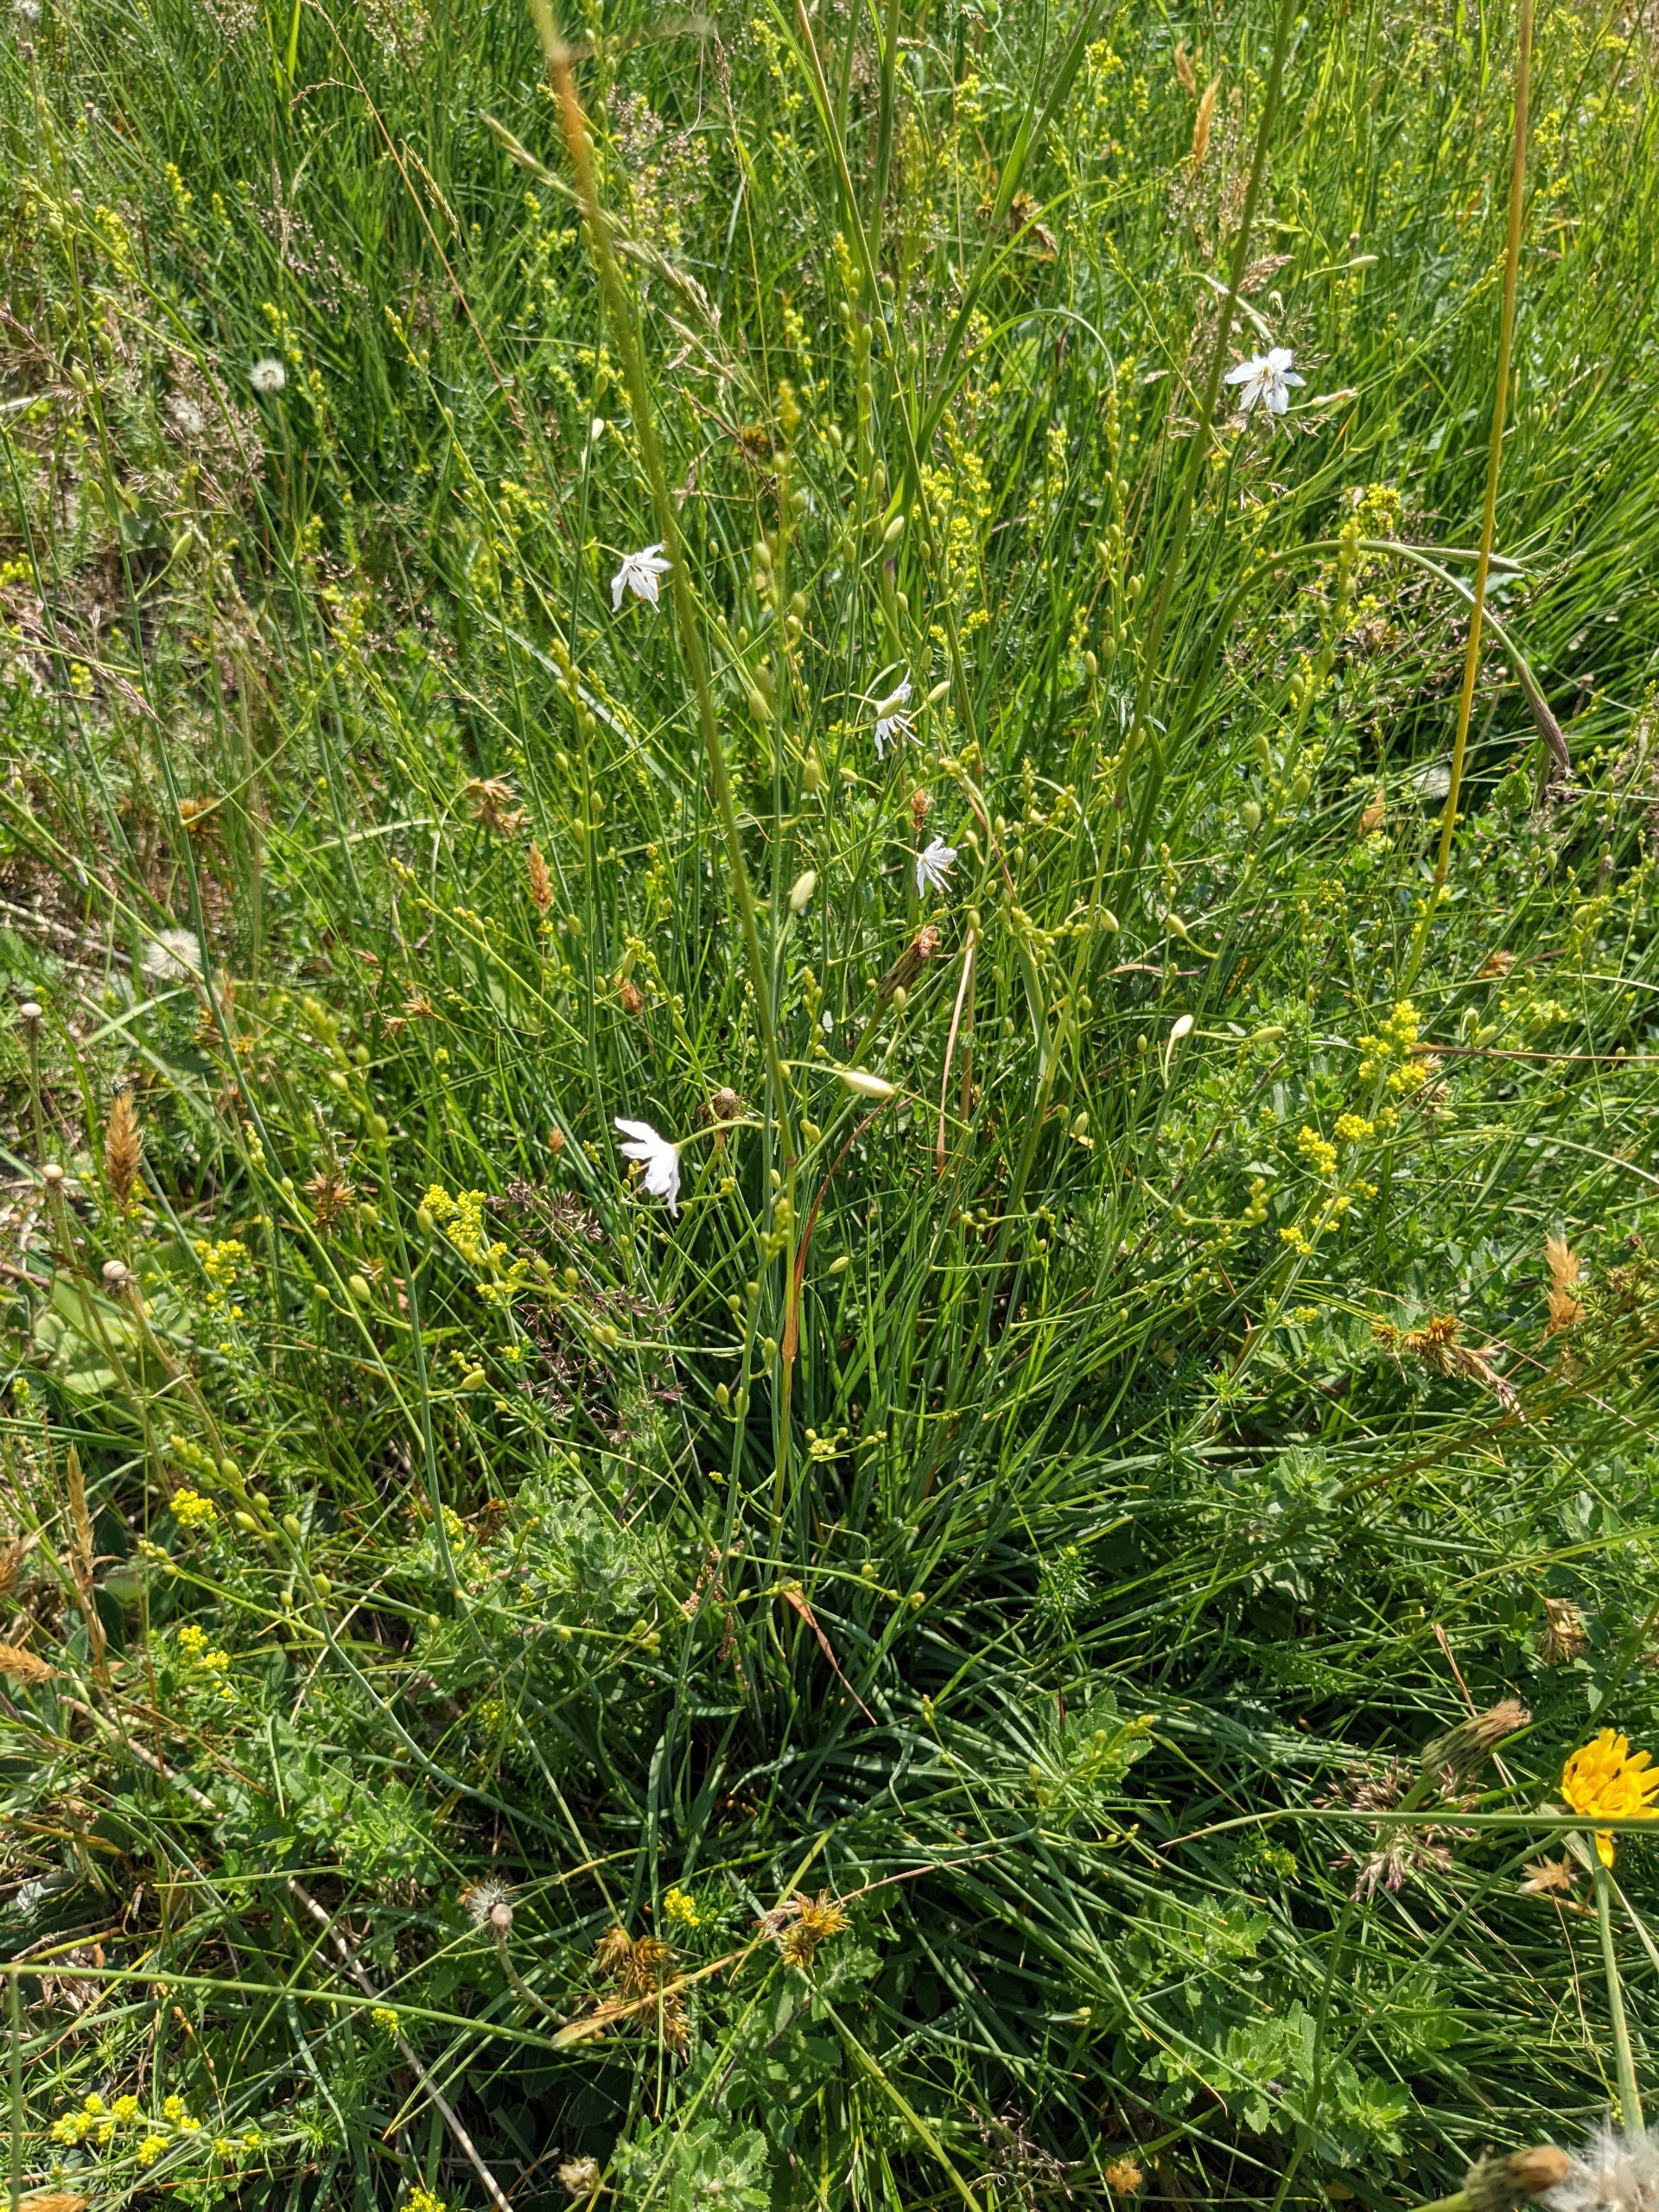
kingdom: Plantae
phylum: Tracheophyta
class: Liliopsida
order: Asparagales
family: Asparagaceae
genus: Anthericum
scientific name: Anthericum ramosum
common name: Grenet edderkopurt
